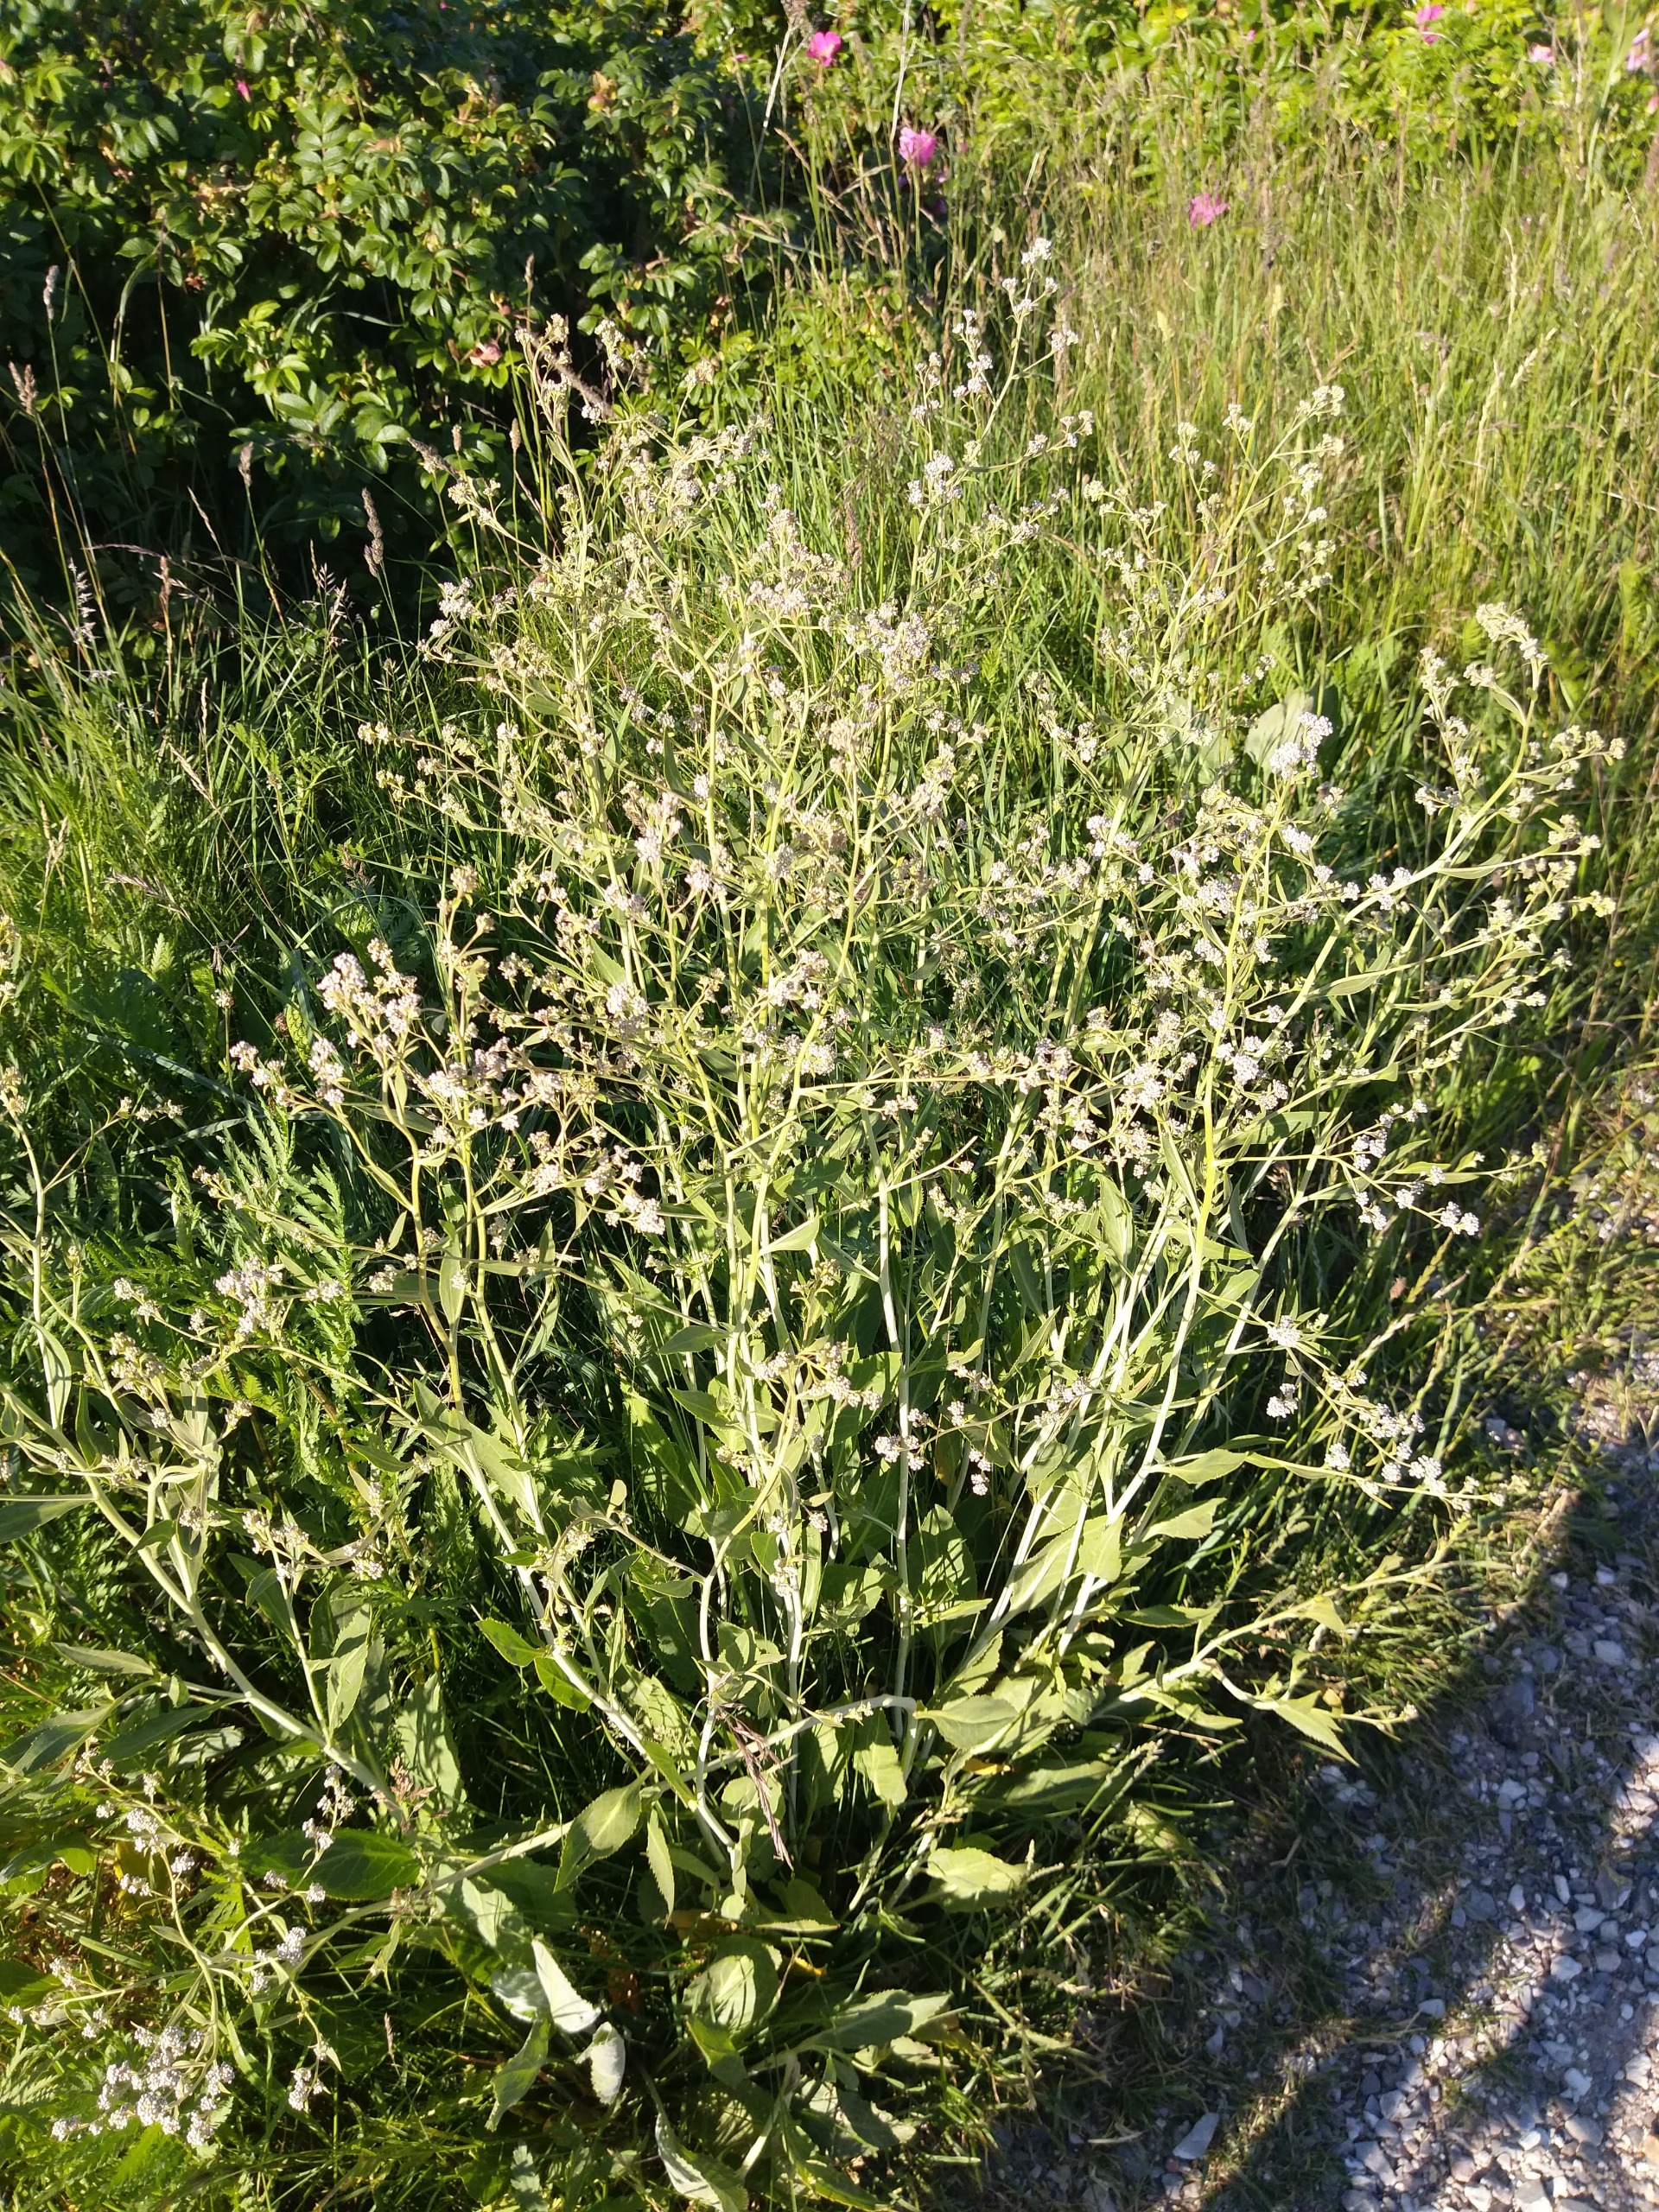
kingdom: Plantae
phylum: Tracheophyta
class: Magnoliopsida
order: Brassicales
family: Brassicaceae
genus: Lepidium
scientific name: Lepidium latifolium
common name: Strand-karse
